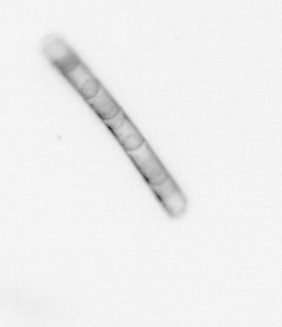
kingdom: Chromista
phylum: Ochrophyta
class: Bacillariophyceae
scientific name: Bacillariophyceae
